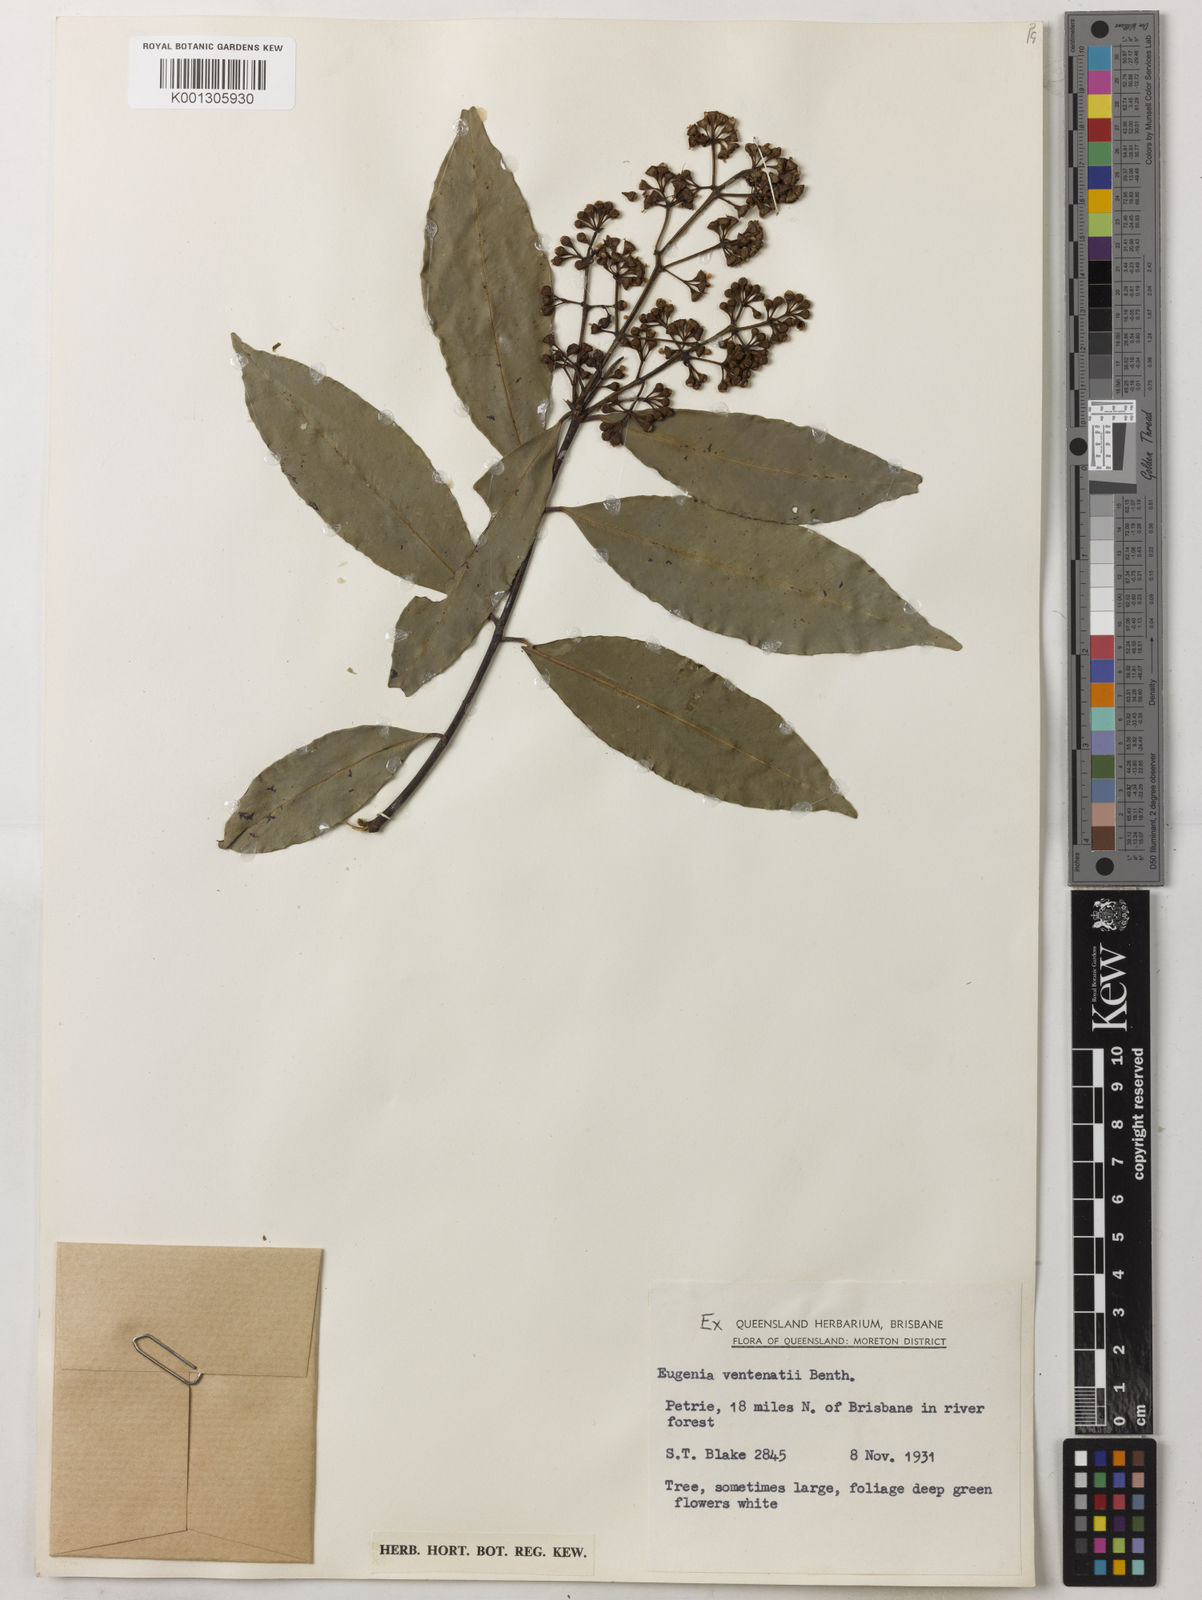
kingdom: Plantae
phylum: Tracheophyta
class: Magnoliopsida
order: Myrtales
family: Myrtaceae
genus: Syzygium
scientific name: Syzygium floribundum
